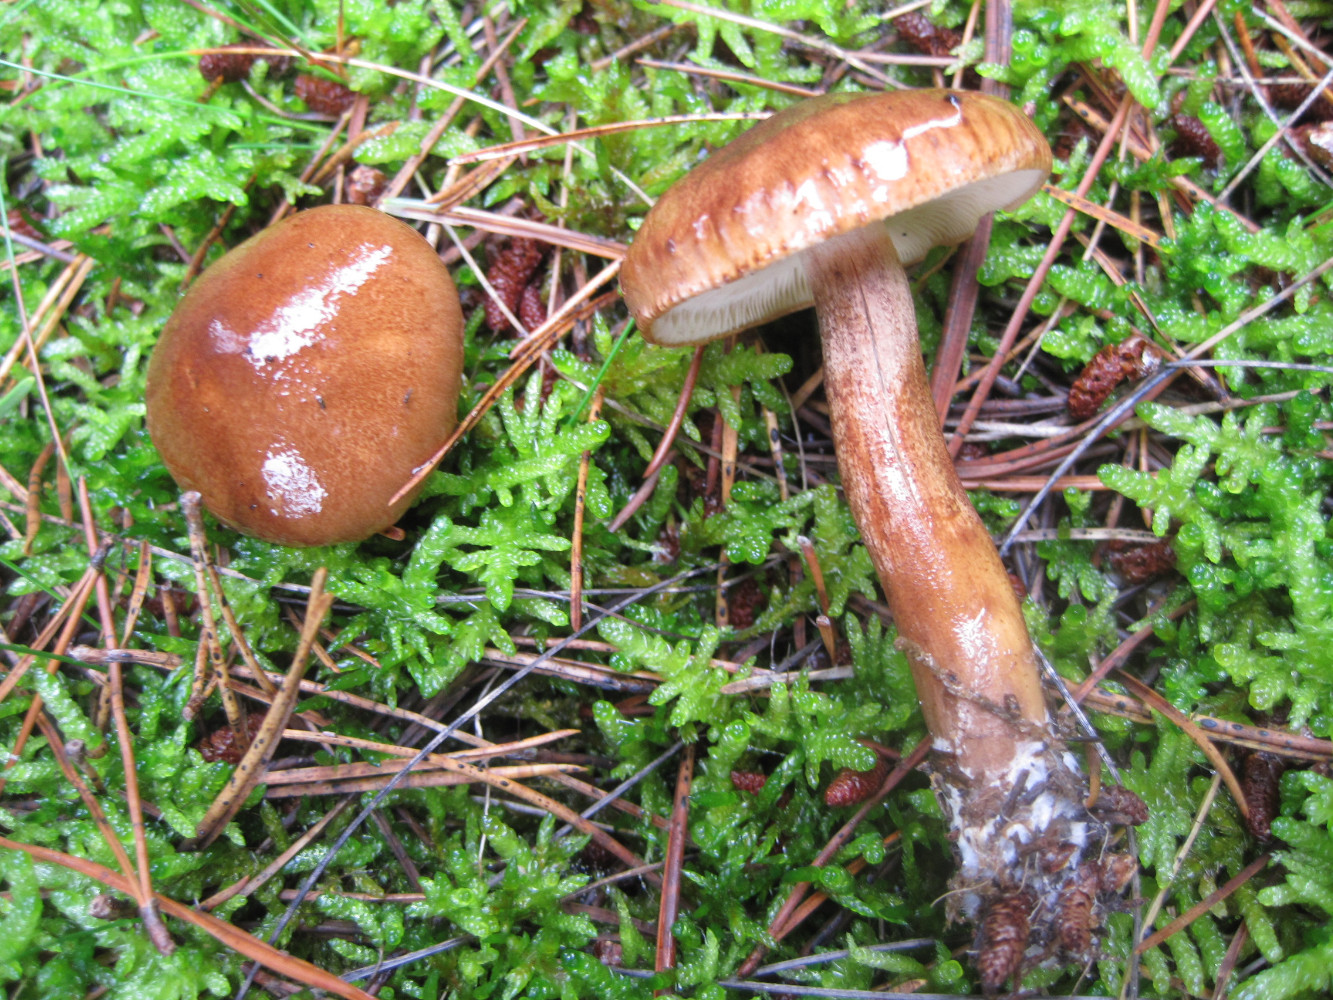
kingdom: Fungi
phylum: Basidiomycota
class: Agaricomycetes
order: Agaricales
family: Tricholomataceae
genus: Tricholoma
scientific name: Tricholoma fulvum
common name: birke-ridderhat
